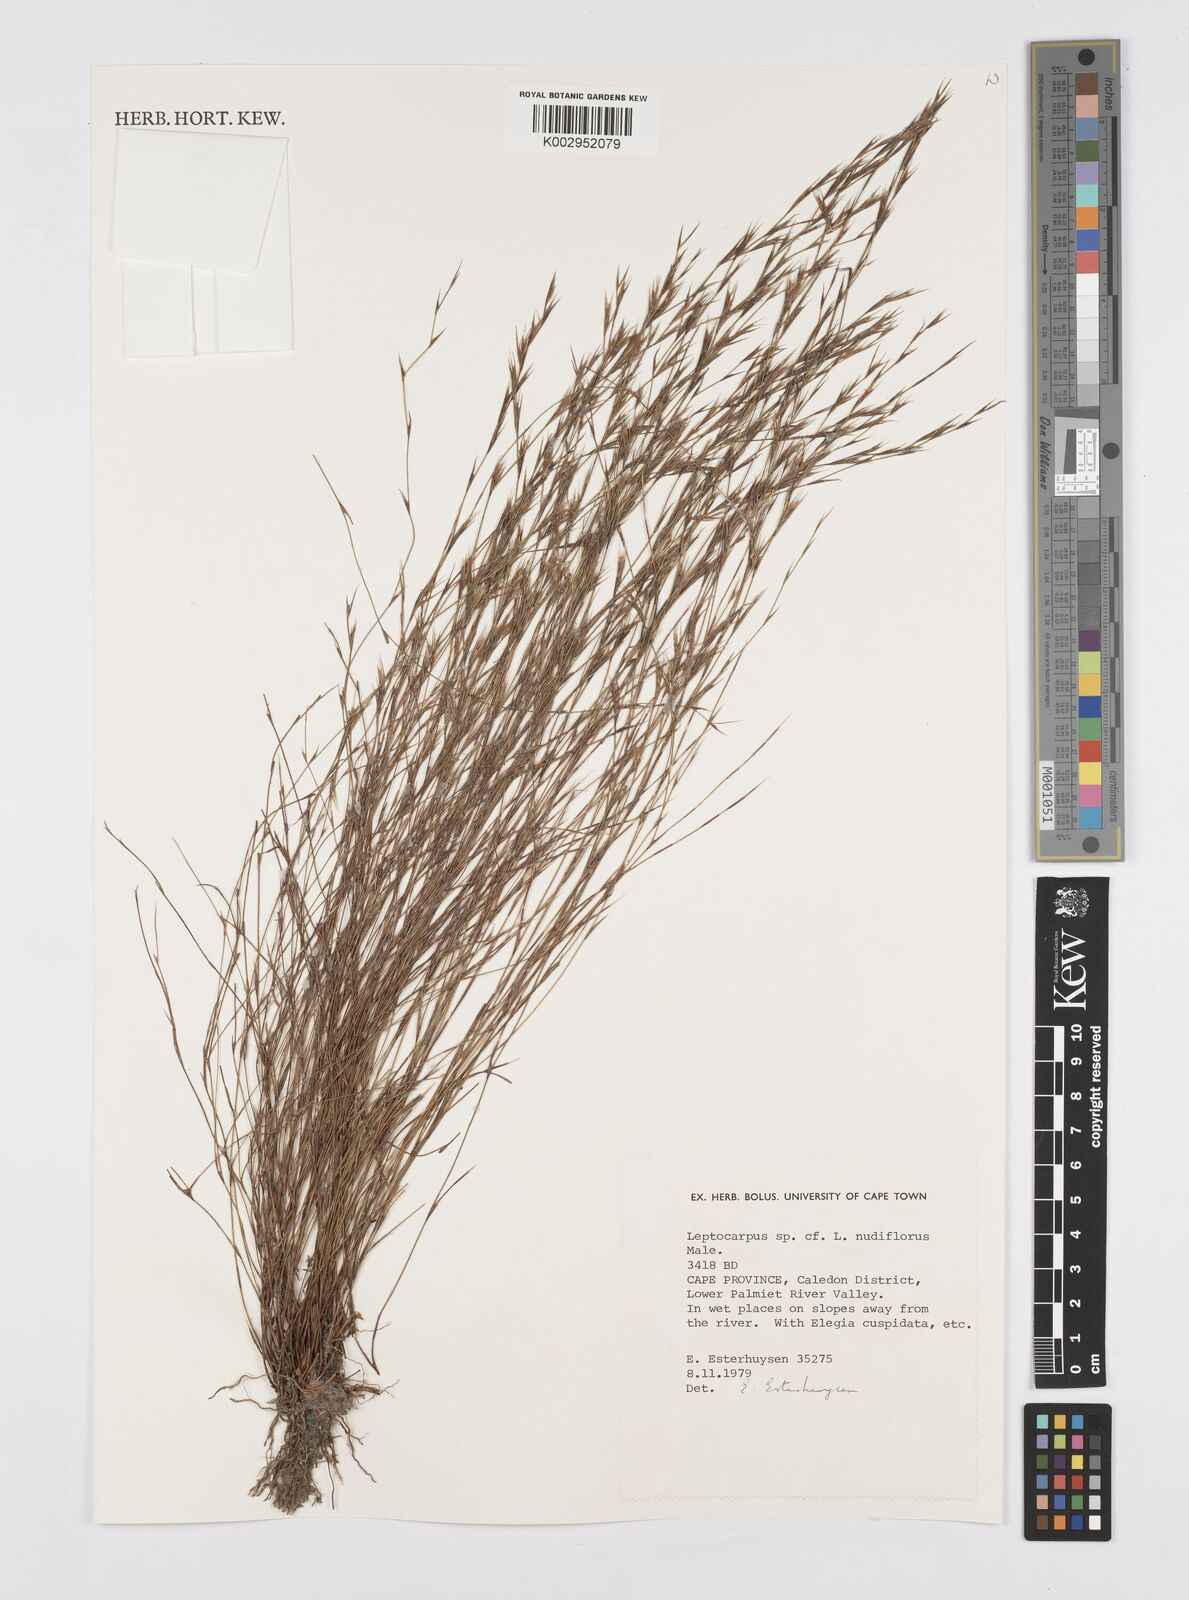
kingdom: Plantae
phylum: Tracheophyta
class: Liliopsida
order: Poales
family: Restionaceae
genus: Restio
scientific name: Restio nudiflorus
